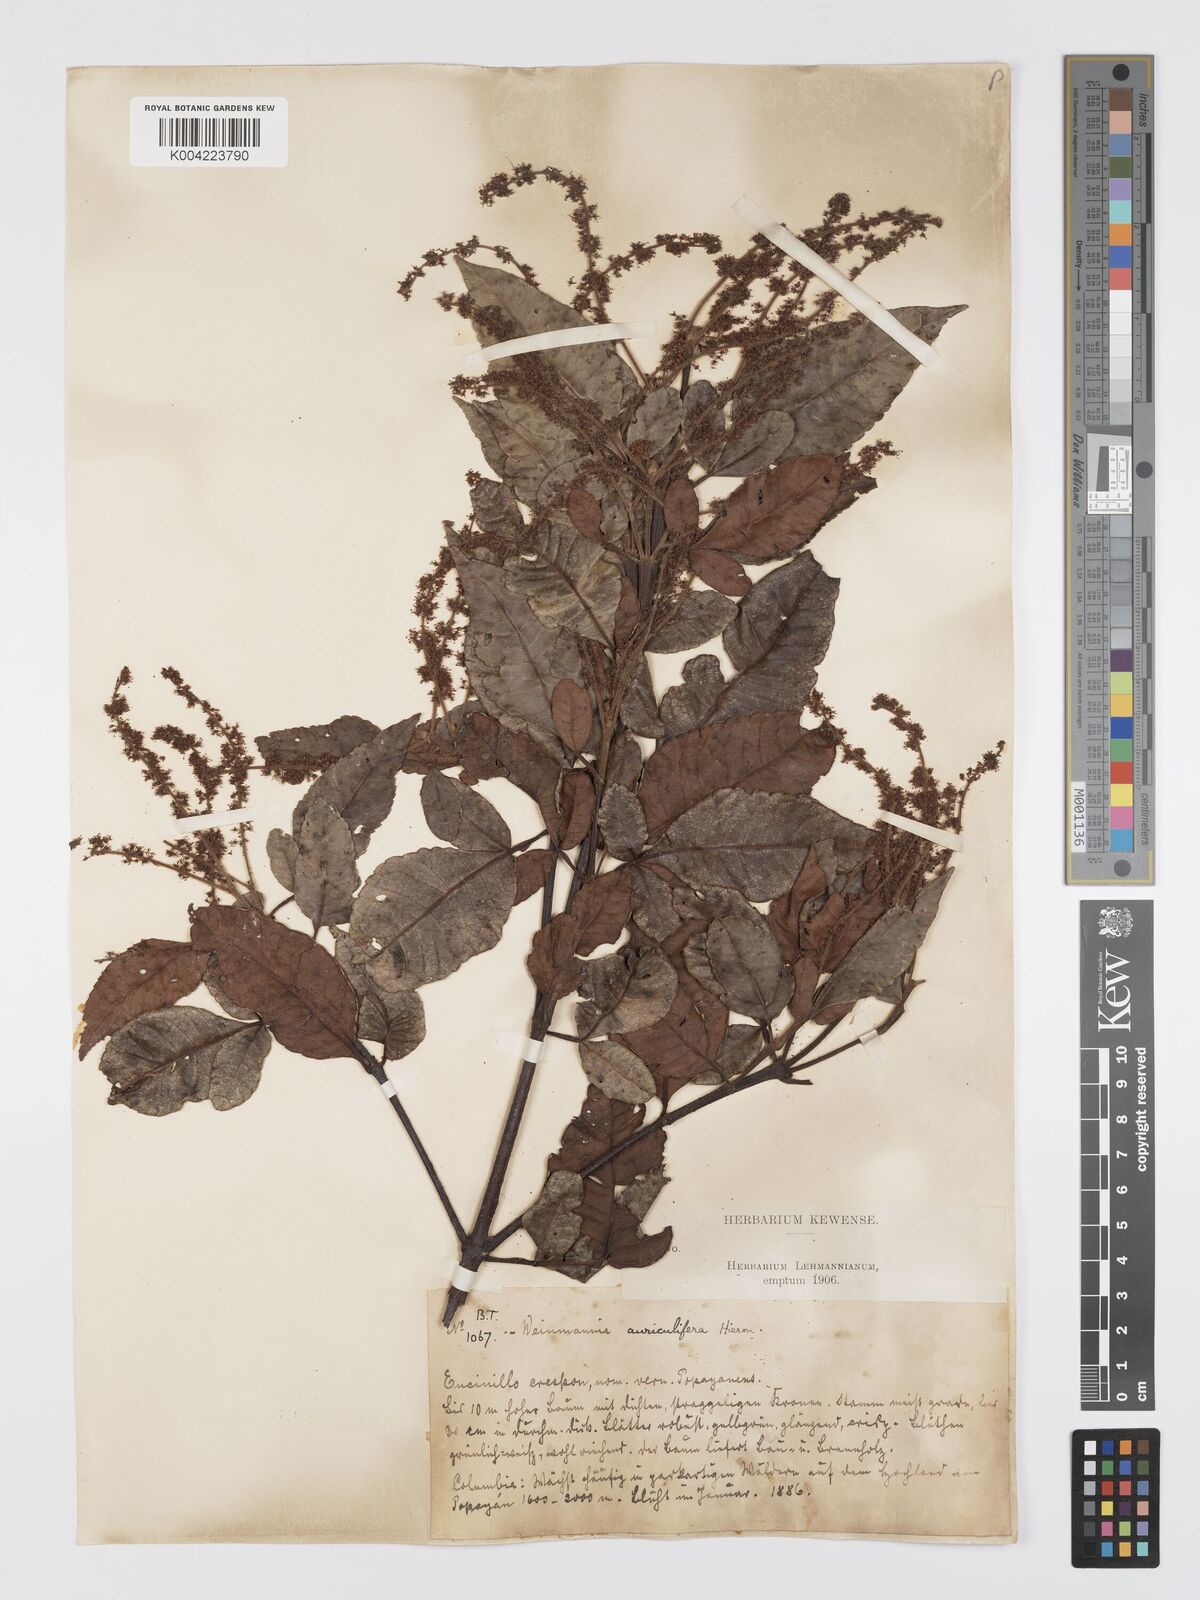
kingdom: Plantae
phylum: Tracheophyta
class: Magnoliopsida
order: Oxalidales
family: Cunoniaceae
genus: Weinmannia
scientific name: Weinmannia cordata
